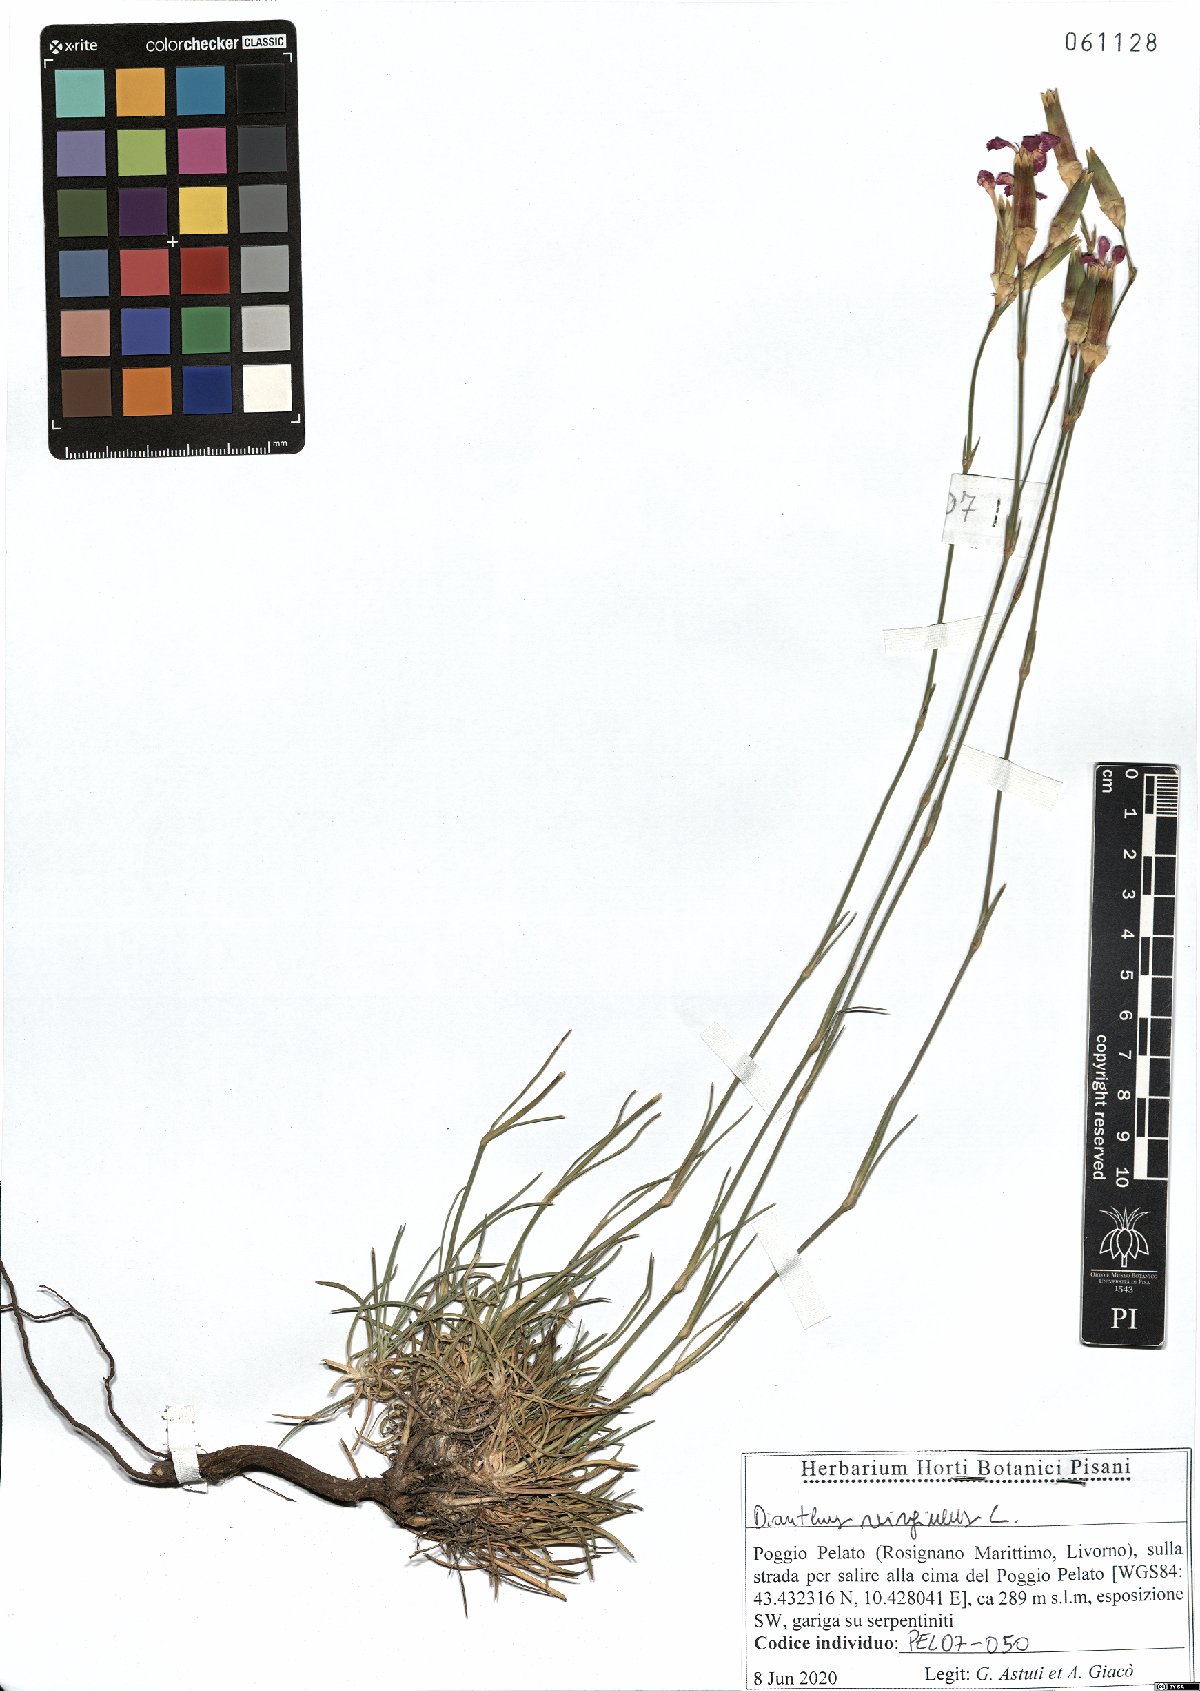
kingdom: Plantae
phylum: Tracheophyta
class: Magnoliopsida
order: Caryophyllales
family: Caryophyllaceae
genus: Dianthus
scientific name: Dianthus virgineus
